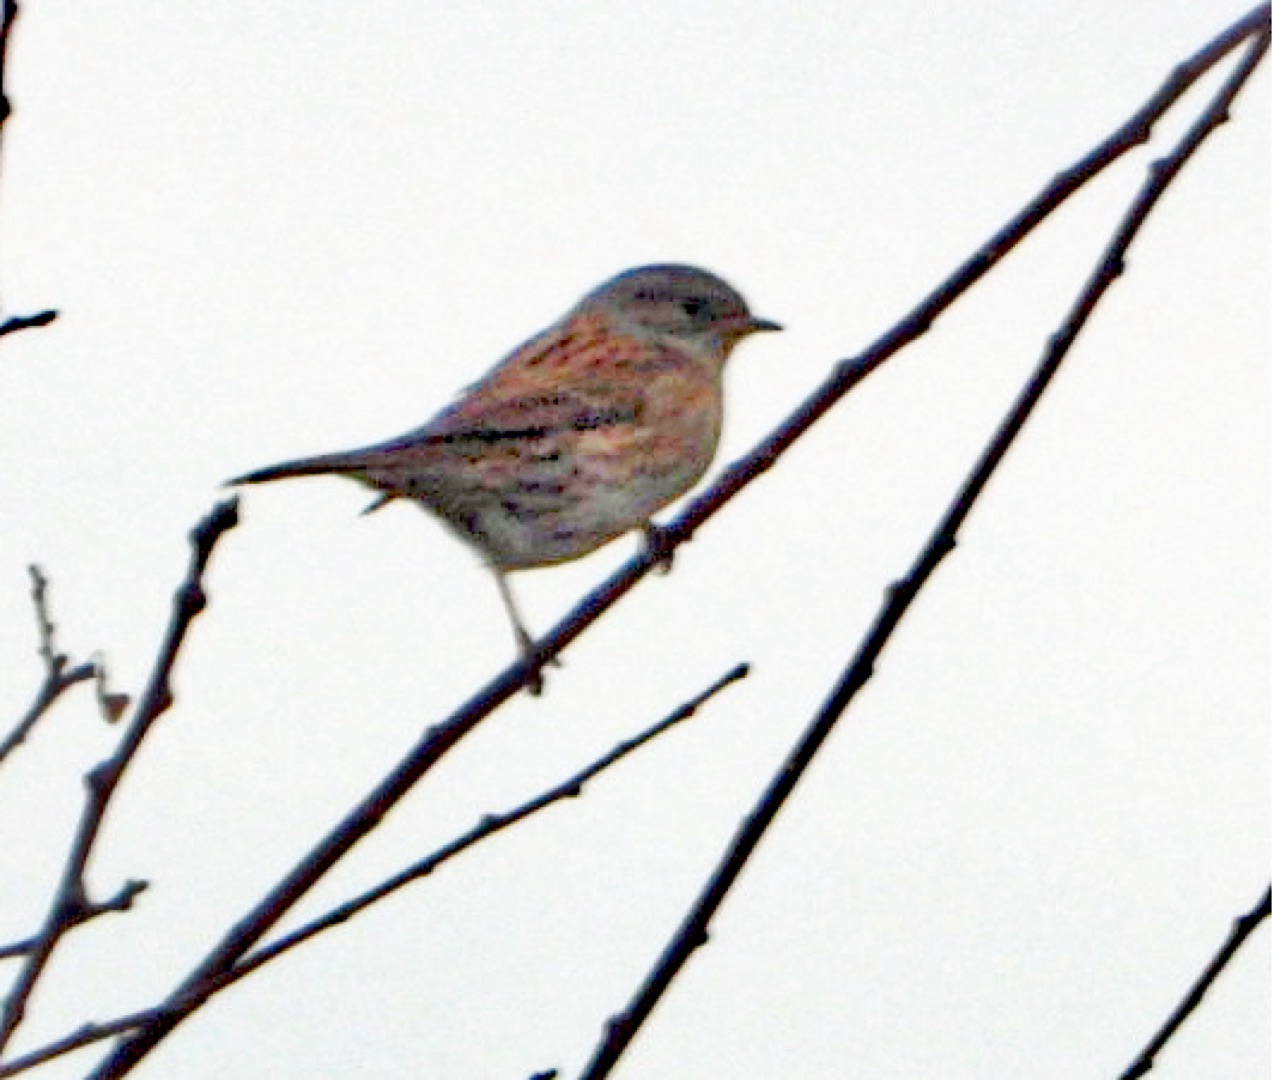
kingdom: Animalia
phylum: Chordata
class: Aves
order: Passeriformes
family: Prunellidae
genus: Prunella
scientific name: Prunella modularis
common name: Jernspurv
